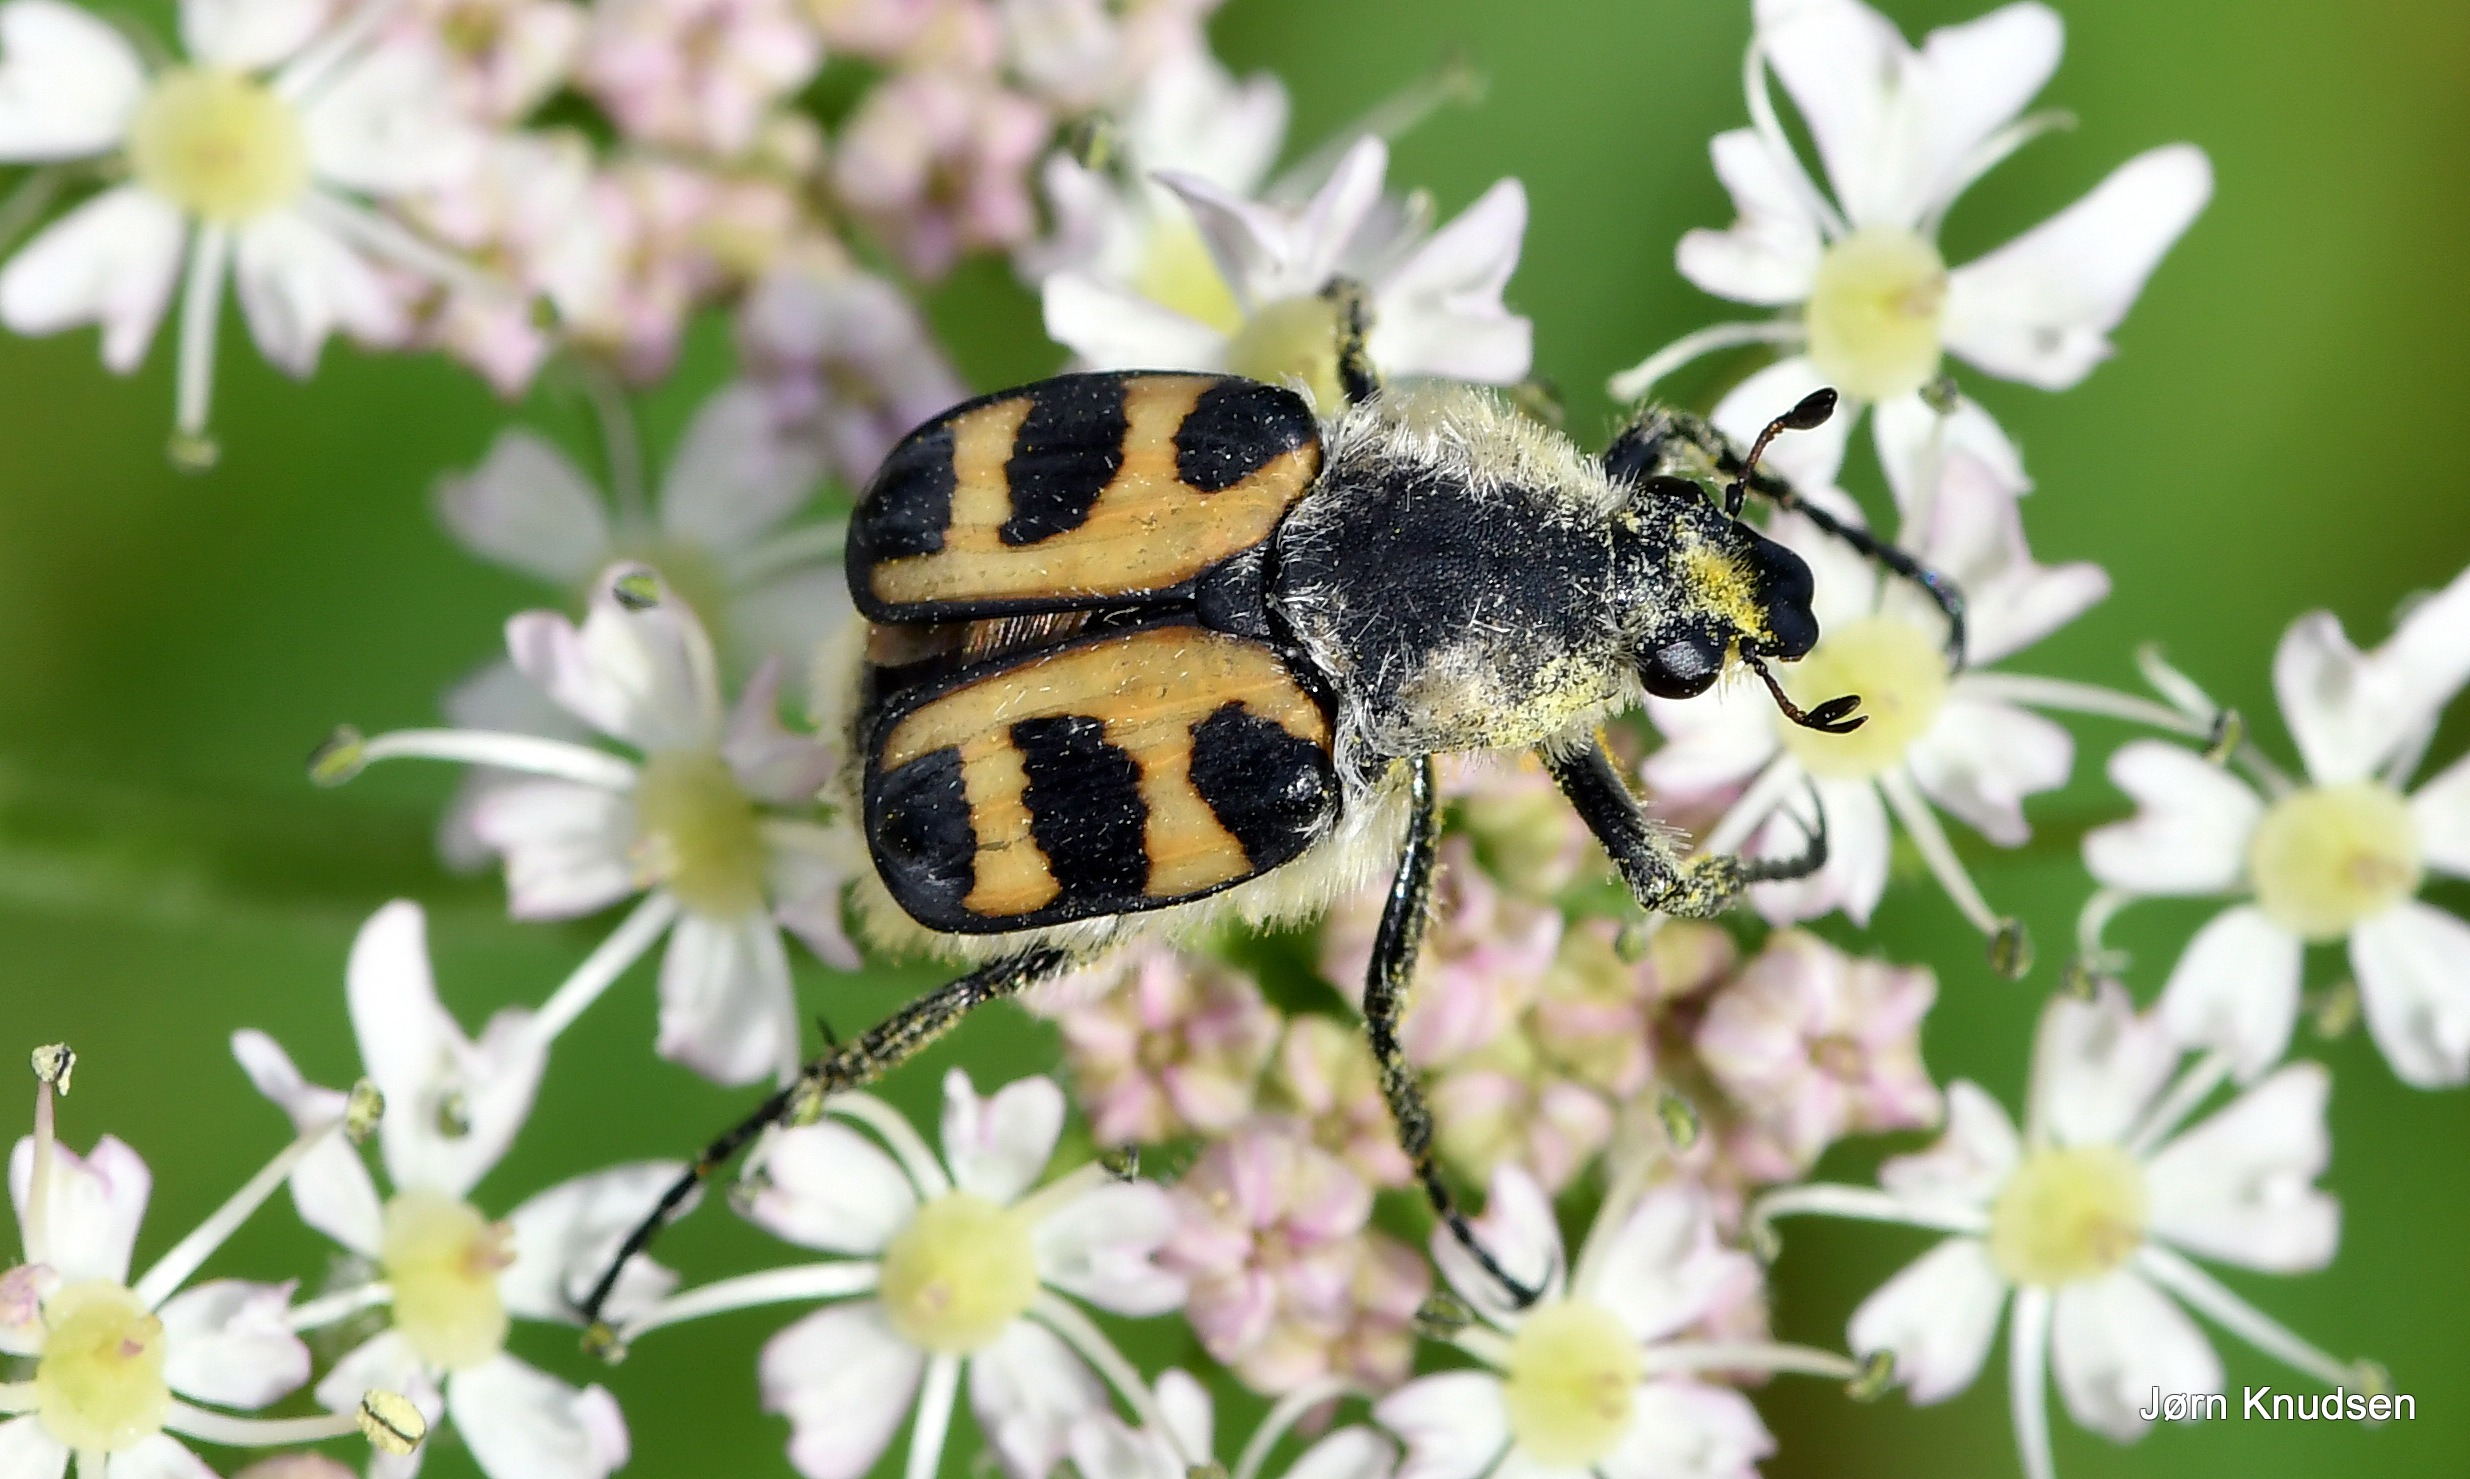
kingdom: Animalia
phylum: Arthropoda
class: Insecta
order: Coleoptera
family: Scarabaeidae
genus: Trichius
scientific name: Trichius gallicus
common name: Lille humlebille
